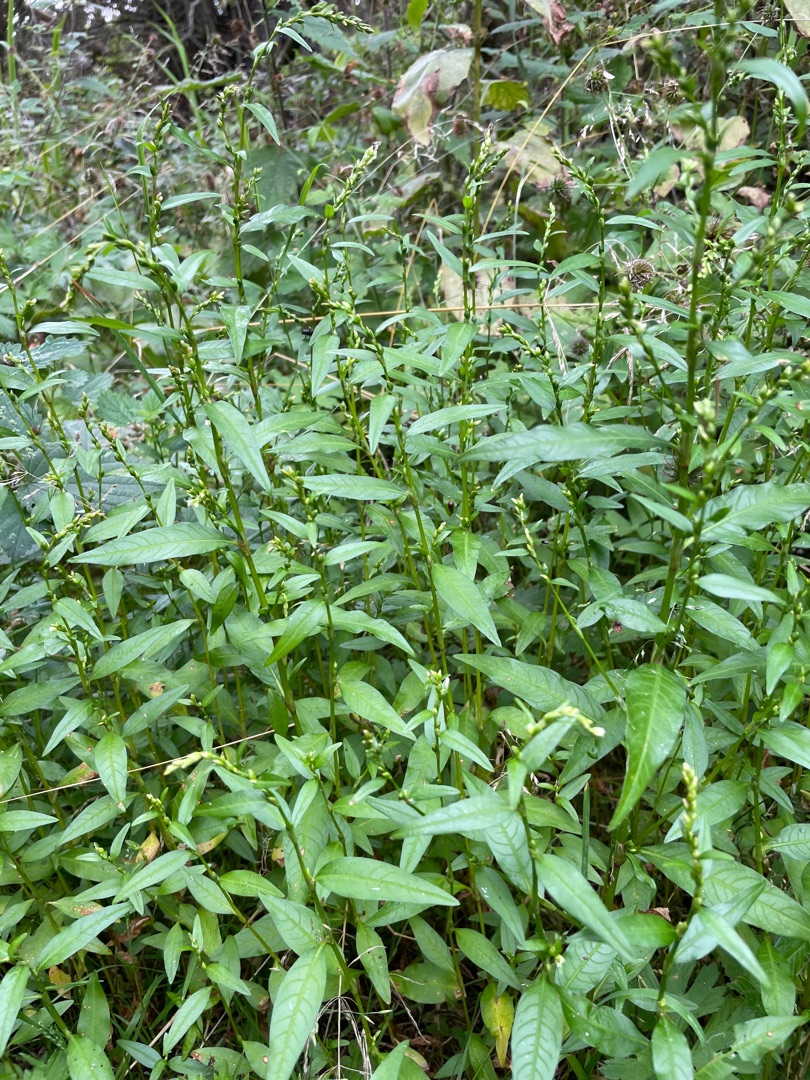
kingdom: Plantae
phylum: Tracheophyta
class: Magnoliopsida
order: Caryophyllales
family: Polygonaceae
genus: Persicaria
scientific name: Persicaria hydropiper
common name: Bidende pileurt
